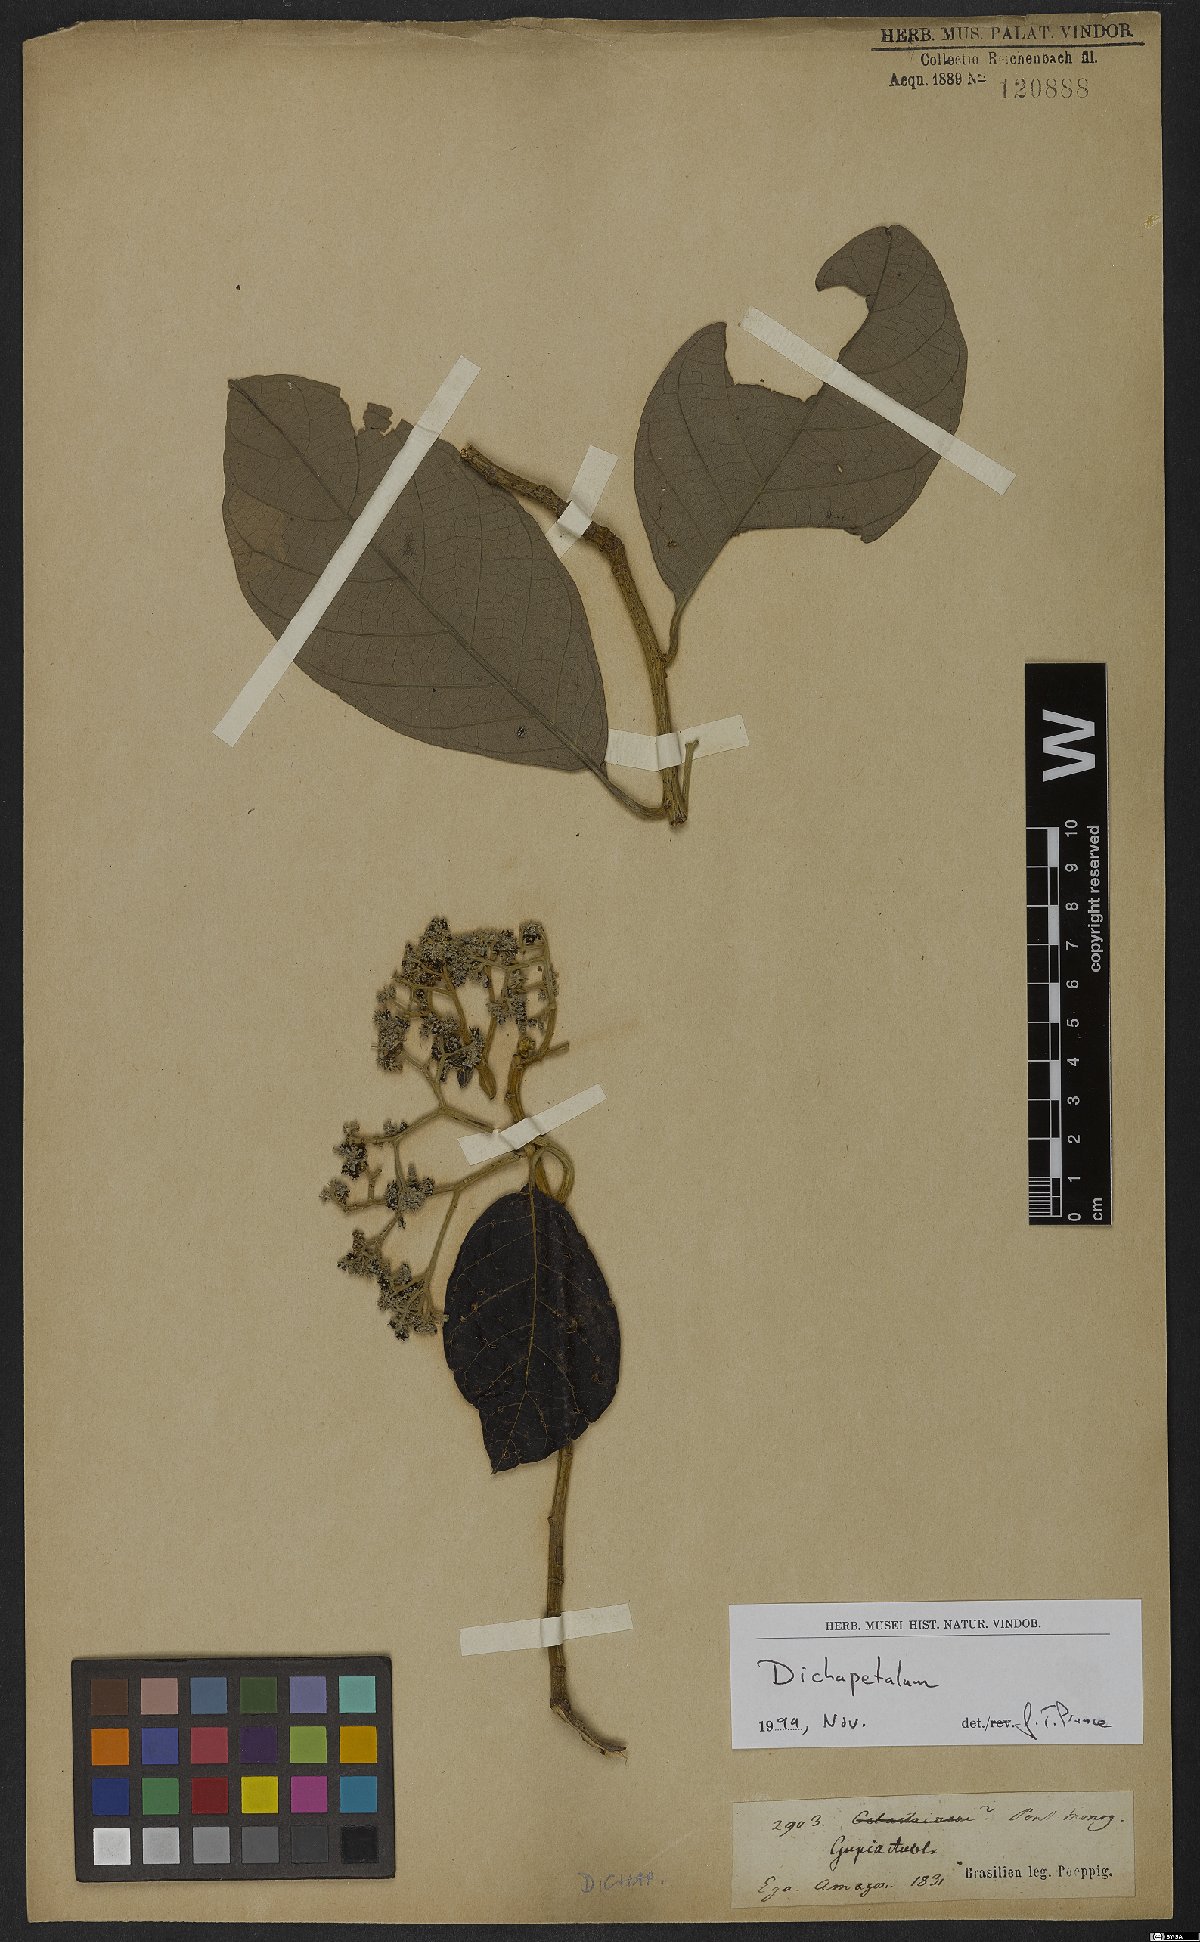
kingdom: Plantae
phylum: Tracheophyta
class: Magnoliopsida
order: Malpighiales
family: Dichapetalaceae
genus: Dichapetalum
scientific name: Dichapetalum
